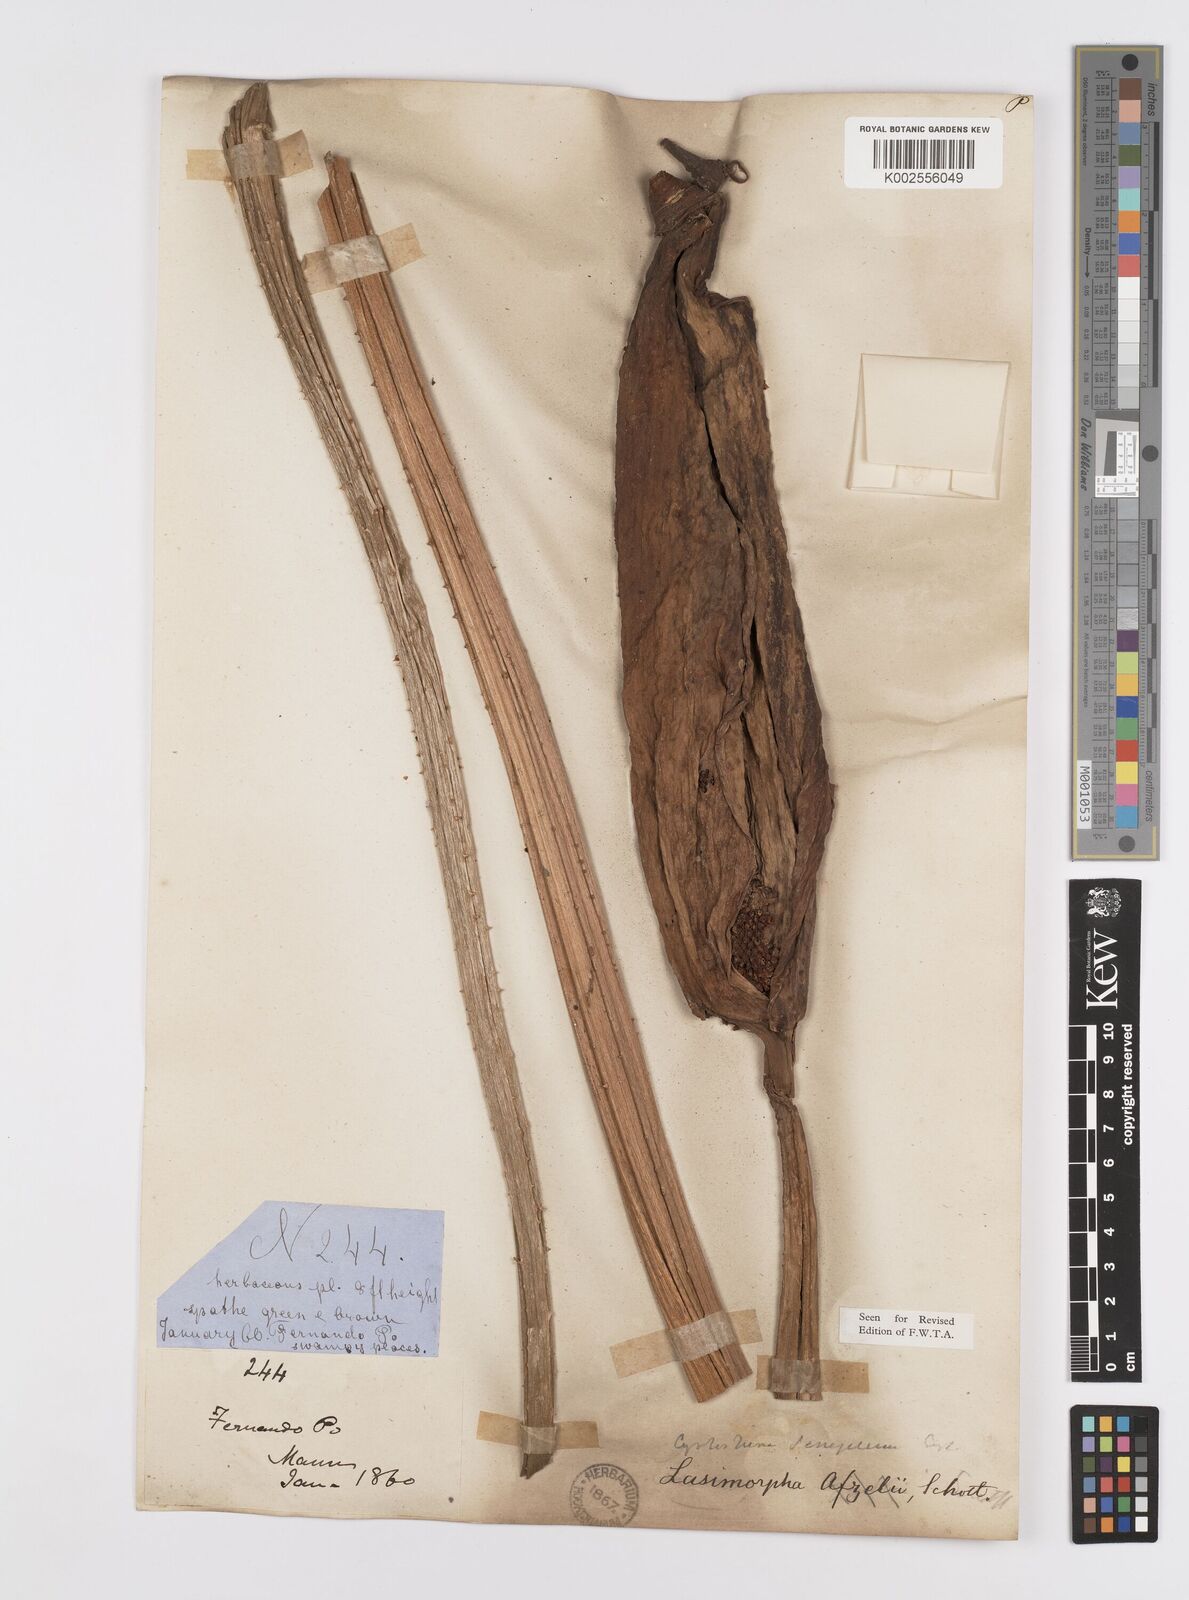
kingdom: Plantae
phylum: Tracheophyta
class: Liliopsida
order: Alismatales
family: Araceae
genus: Lasimorpha
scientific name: Lasimorpha senegalensis
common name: Swamp arum
